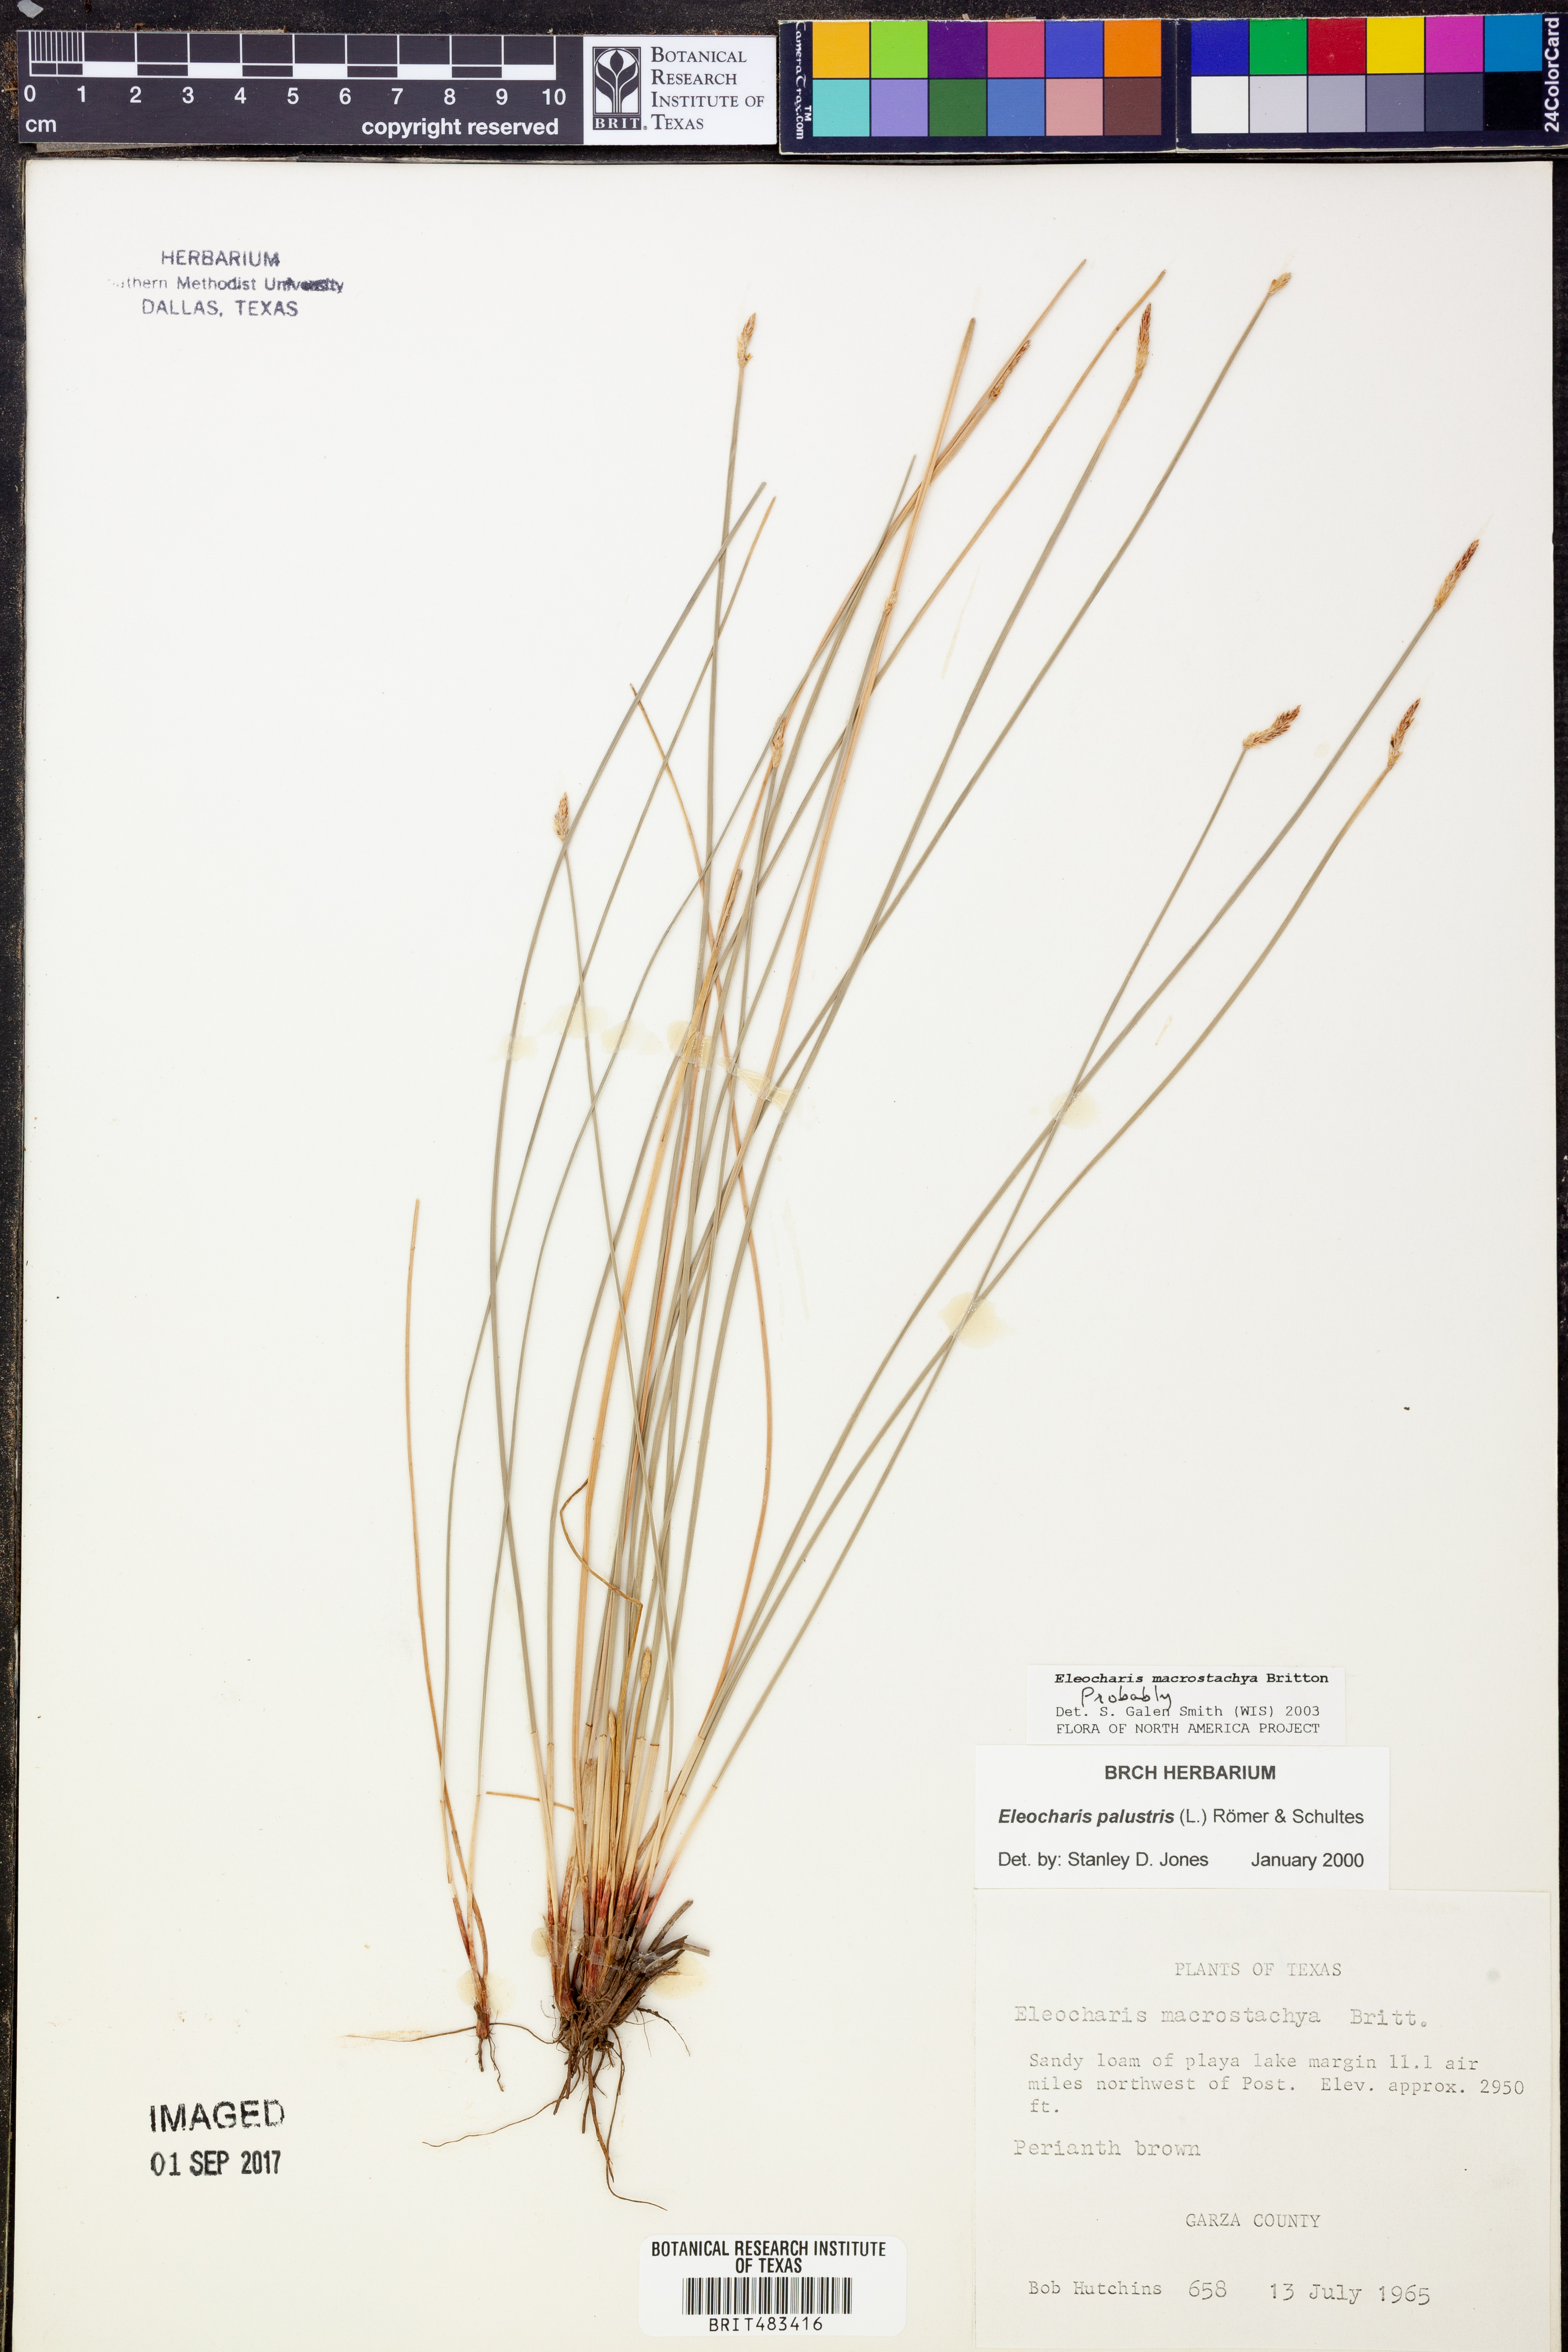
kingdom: Plantae
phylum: Tracheophyta
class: Liliopsida
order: Poales
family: Cyperaceae
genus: Eleocharis
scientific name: Eleocharis macrostachya
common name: Pale spikerush
